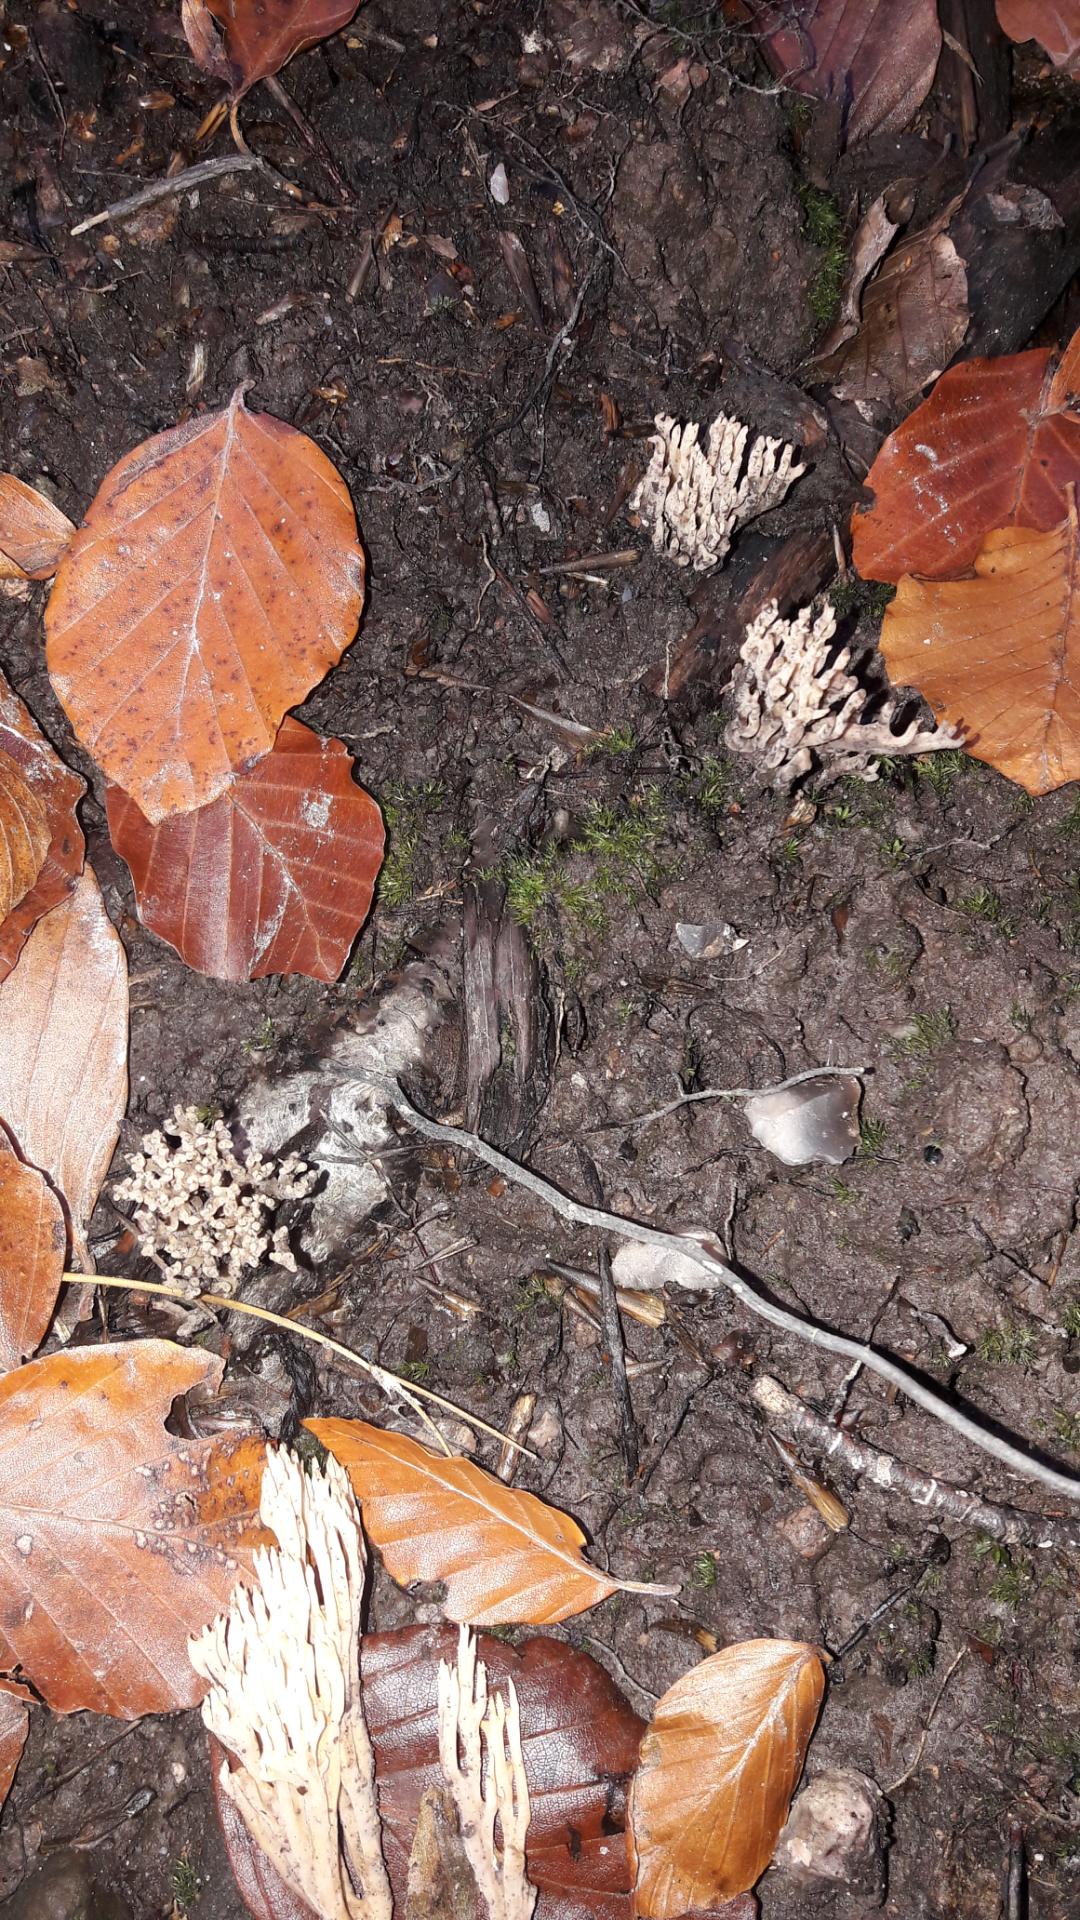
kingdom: Fungi
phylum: Basidiomycota
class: Agaricomycetes
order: Gomphales
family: Gomphaceae
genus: Ramaria
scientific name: Ramaria stricta
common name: rank koralsvamp
